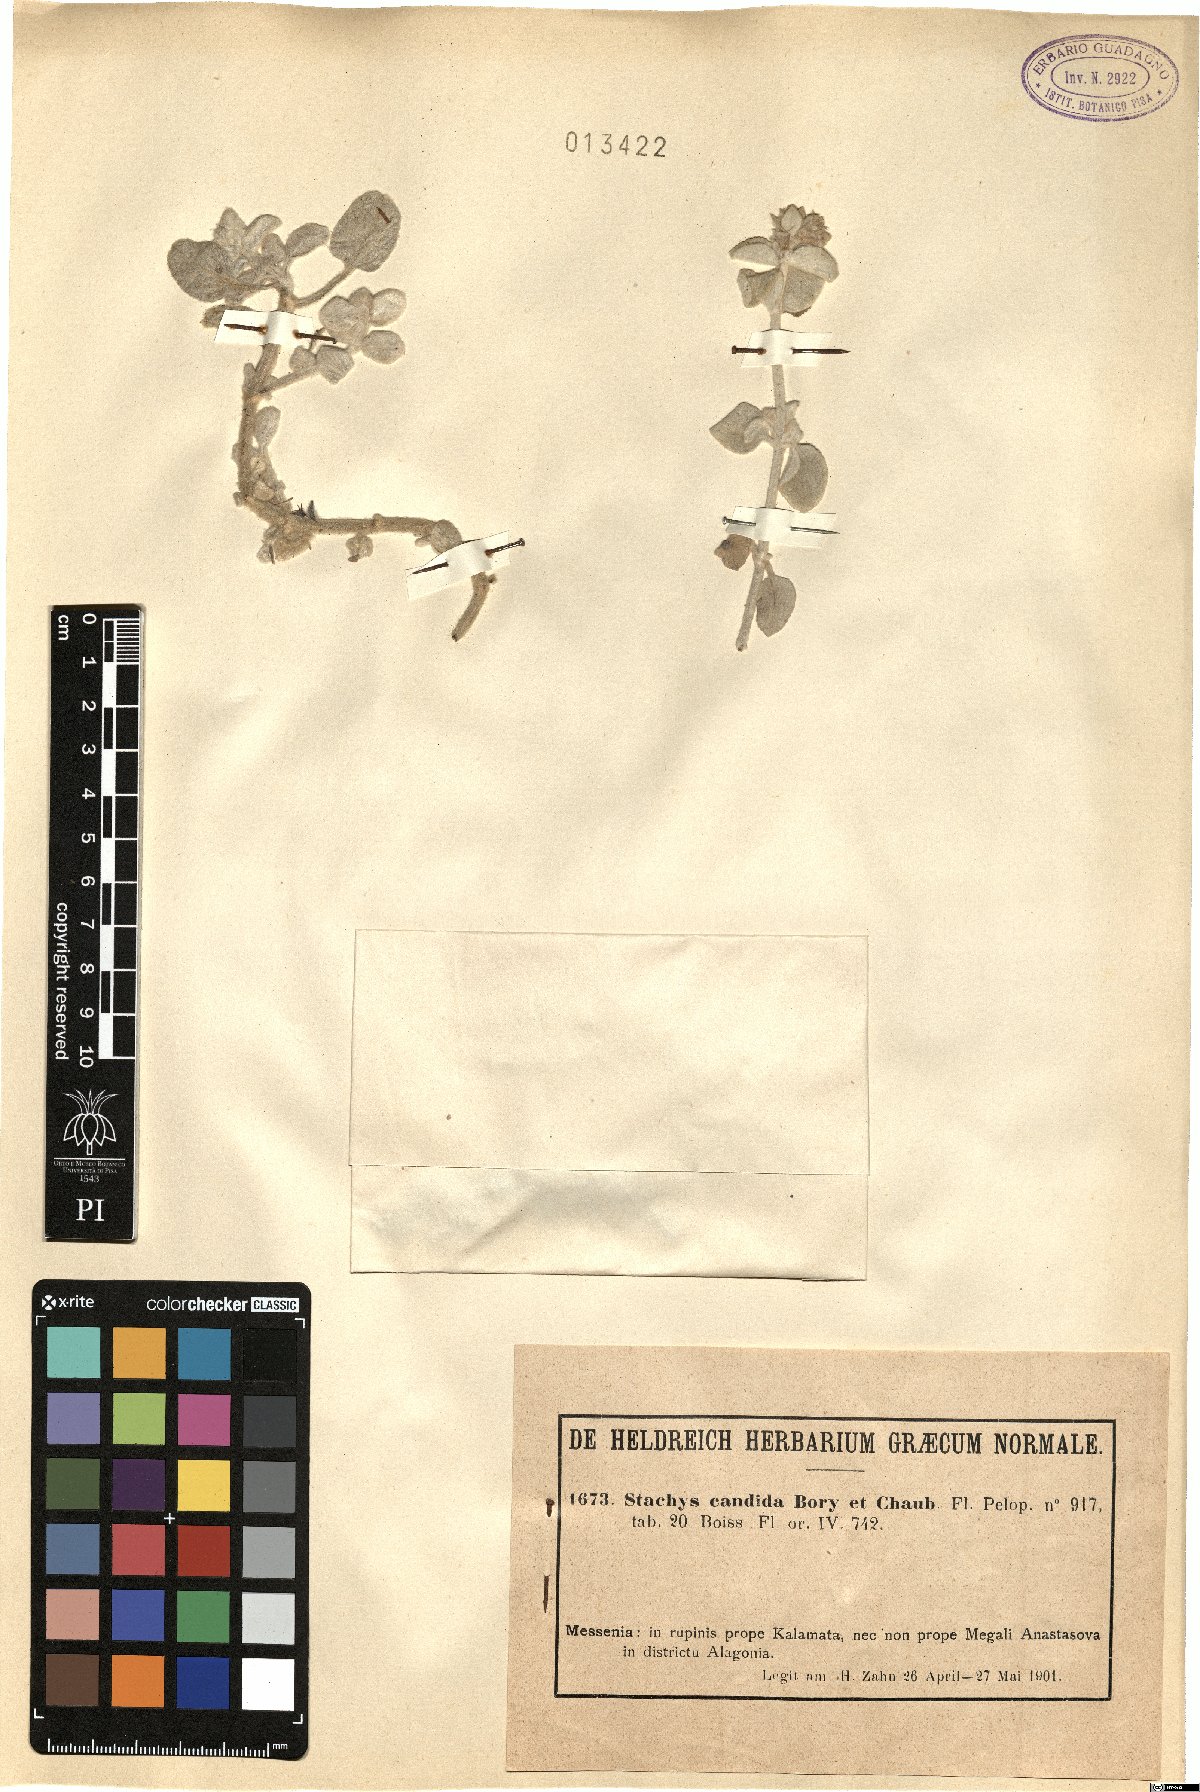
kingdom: Plantae
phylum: Tracheophyta
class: Magnoliopsida
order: Lamiales
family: Lamiaceae
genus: Stachys
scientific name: Stachys candida
